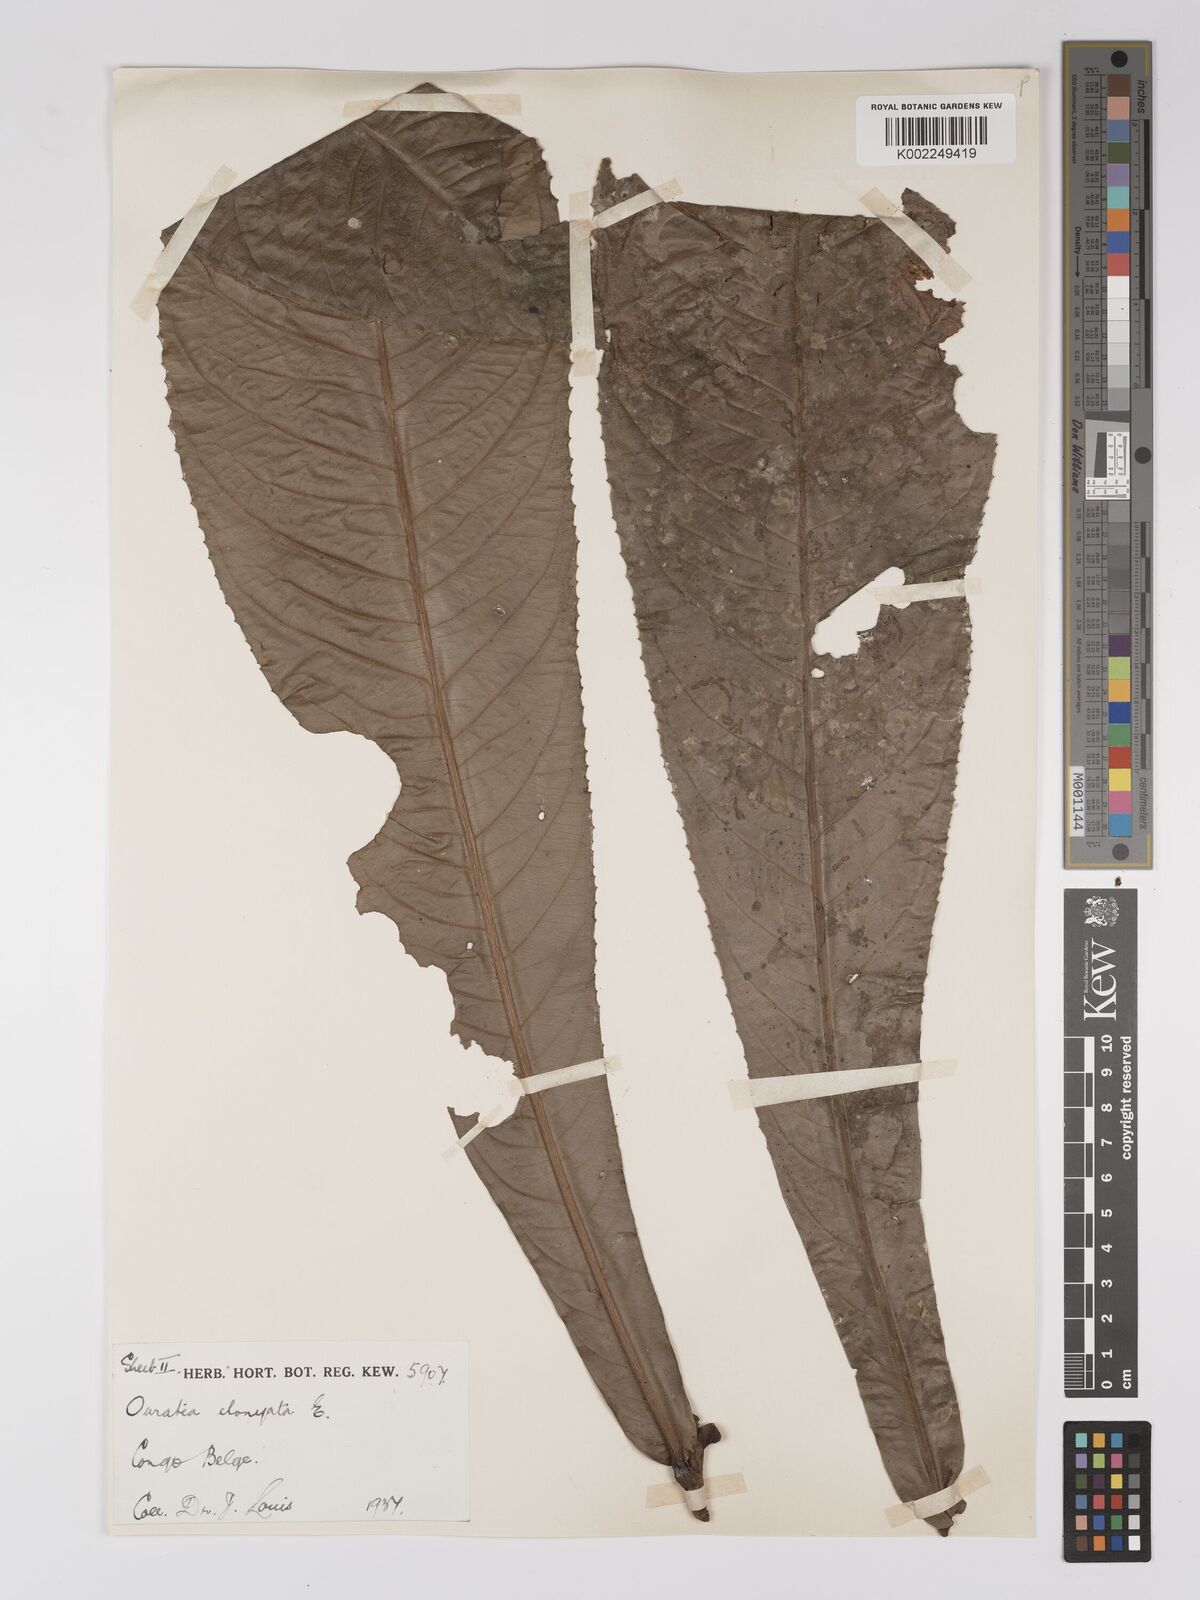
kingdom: Plantae
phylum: Tracheophyta
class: Magnoliopsida
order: Malpighiales
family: Ochnaceae
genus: Gomphia
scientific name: Gomphia elongata
